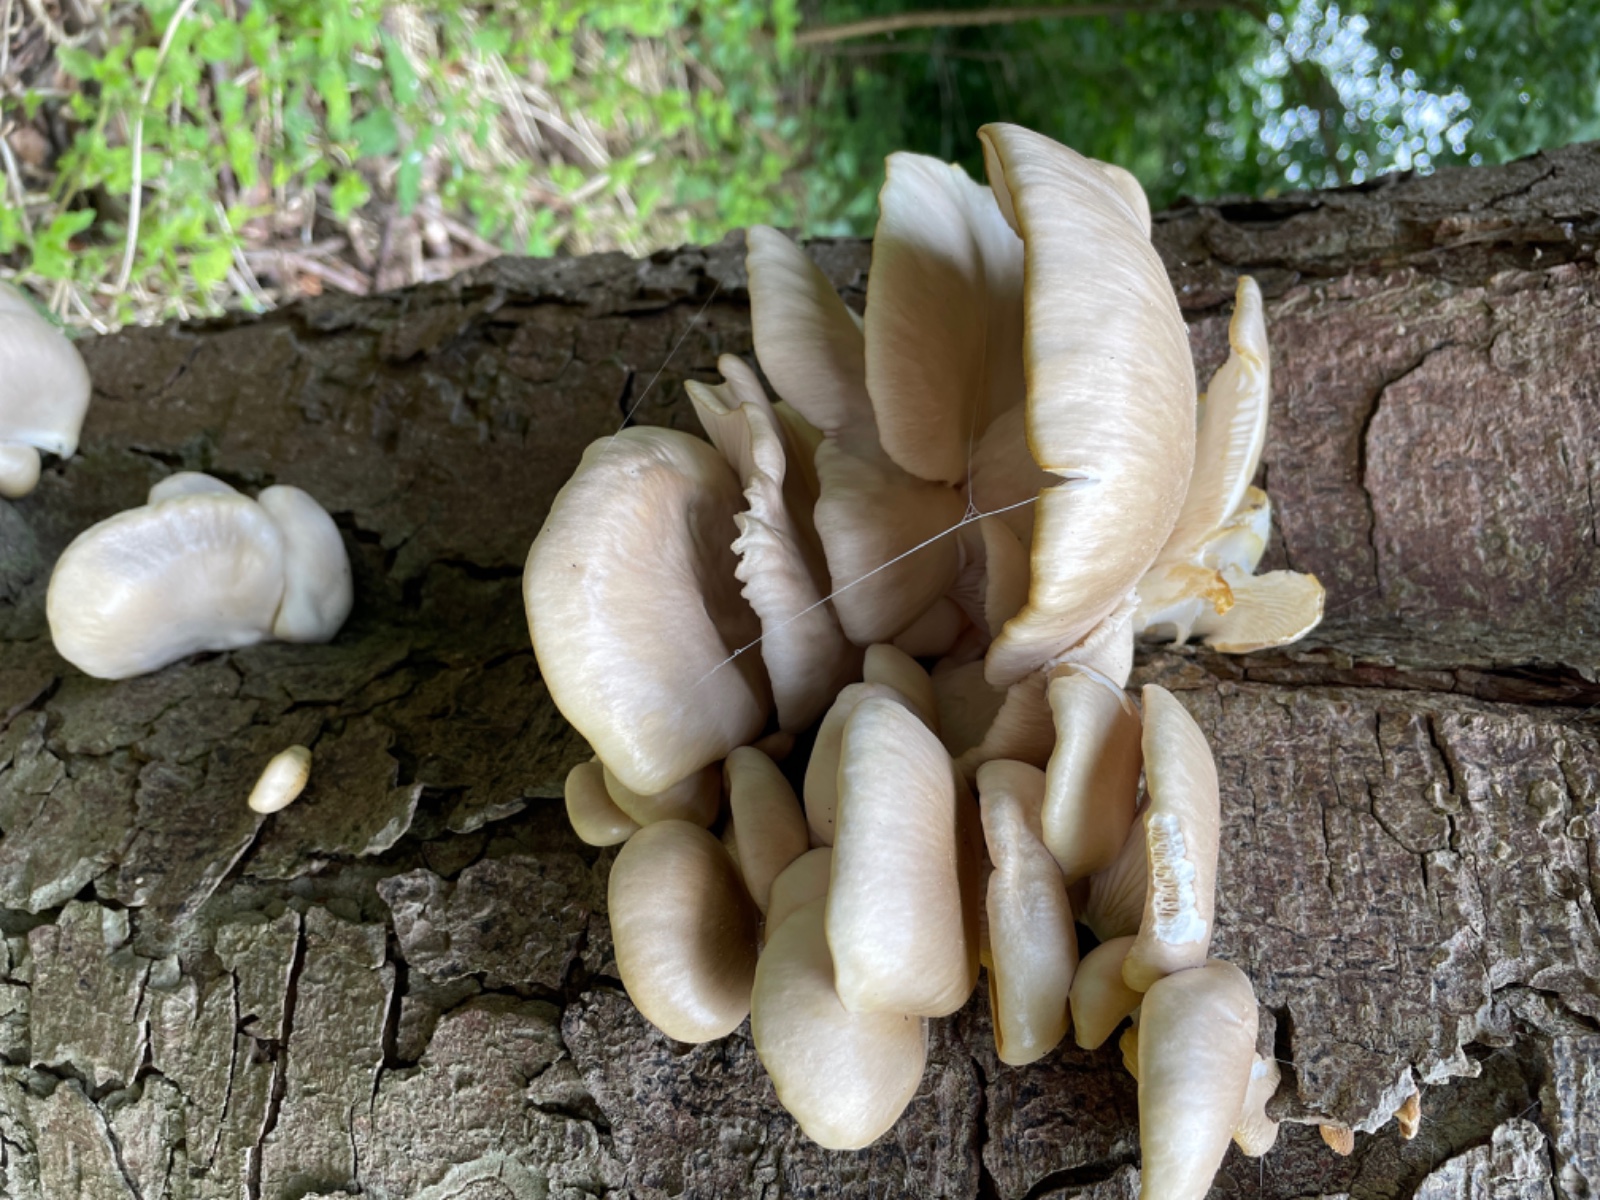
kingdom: Fungi
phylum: Basidiomycota
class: Agaricomycetes
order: Agaricales
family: Pleurotaceae
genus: Pleurotus
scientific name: Pleurotus pulmonarius
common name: sommer-østershat
